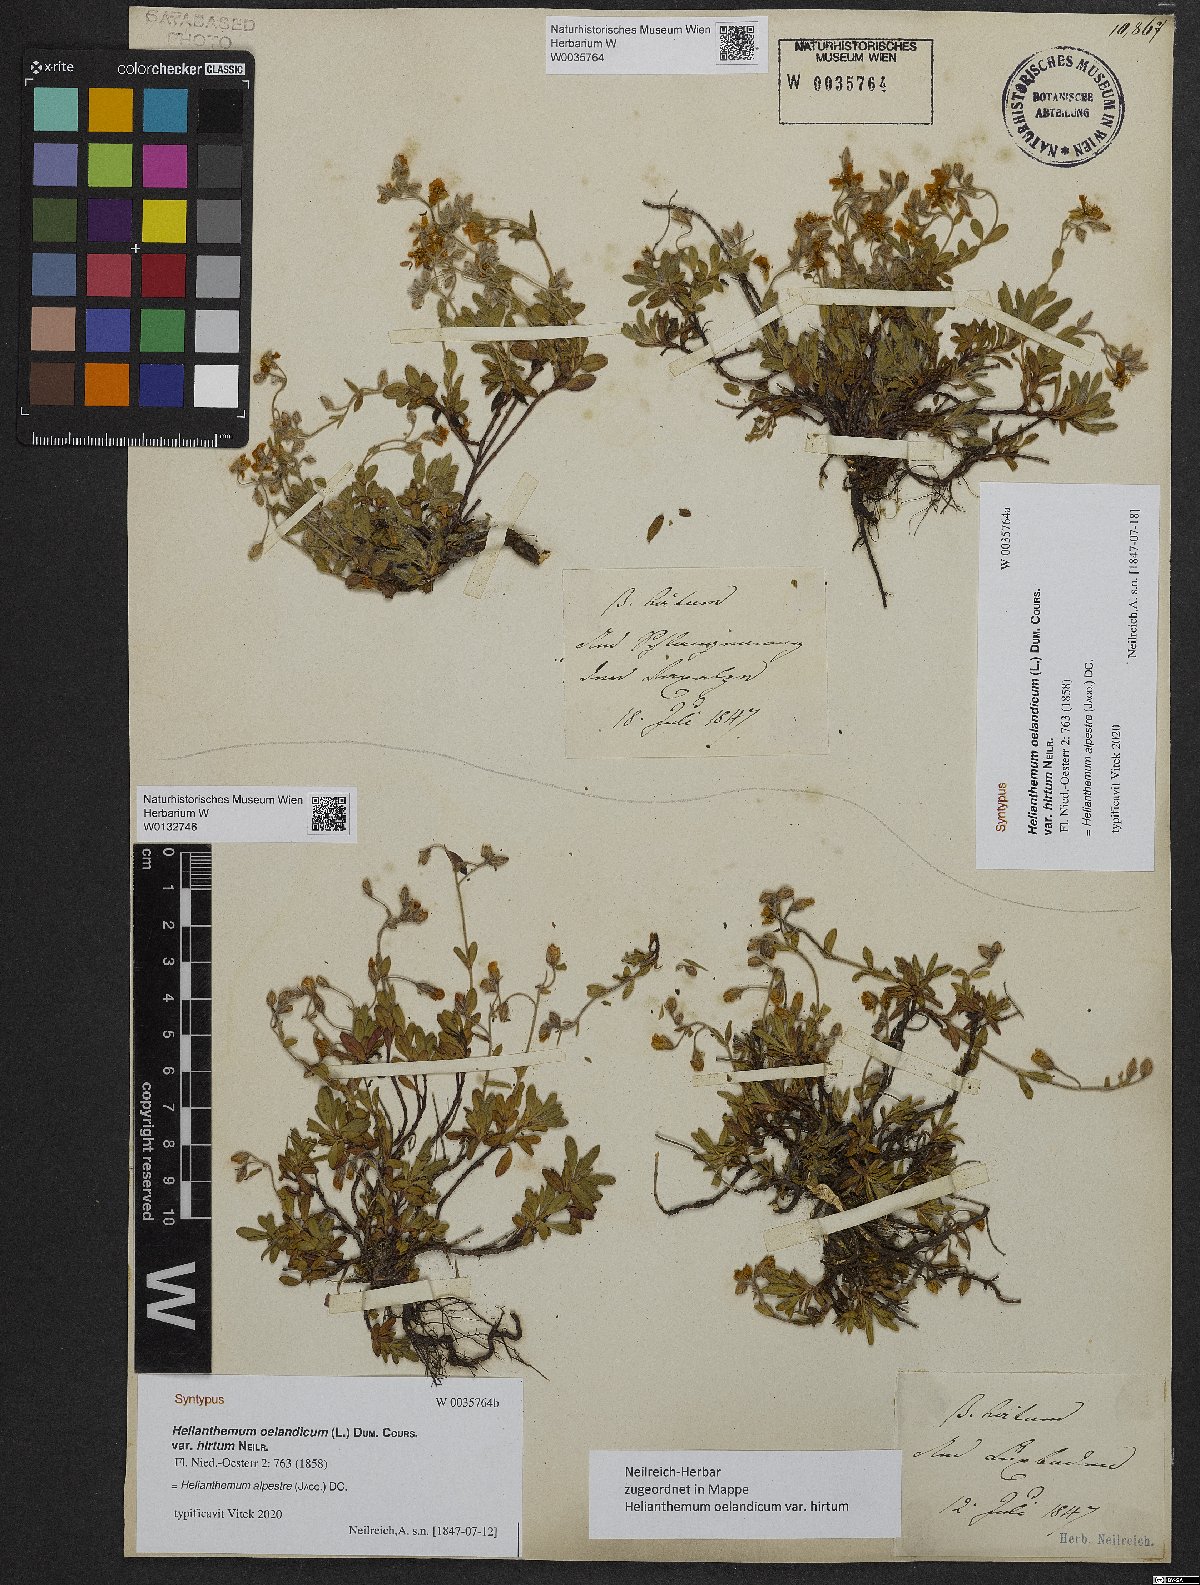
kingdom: Plantae
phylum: Tracheophyta
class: Magnoliopsida
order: Malvales
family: Cistaceae
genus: Helianthemum
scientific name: Helianthemum alpestre
